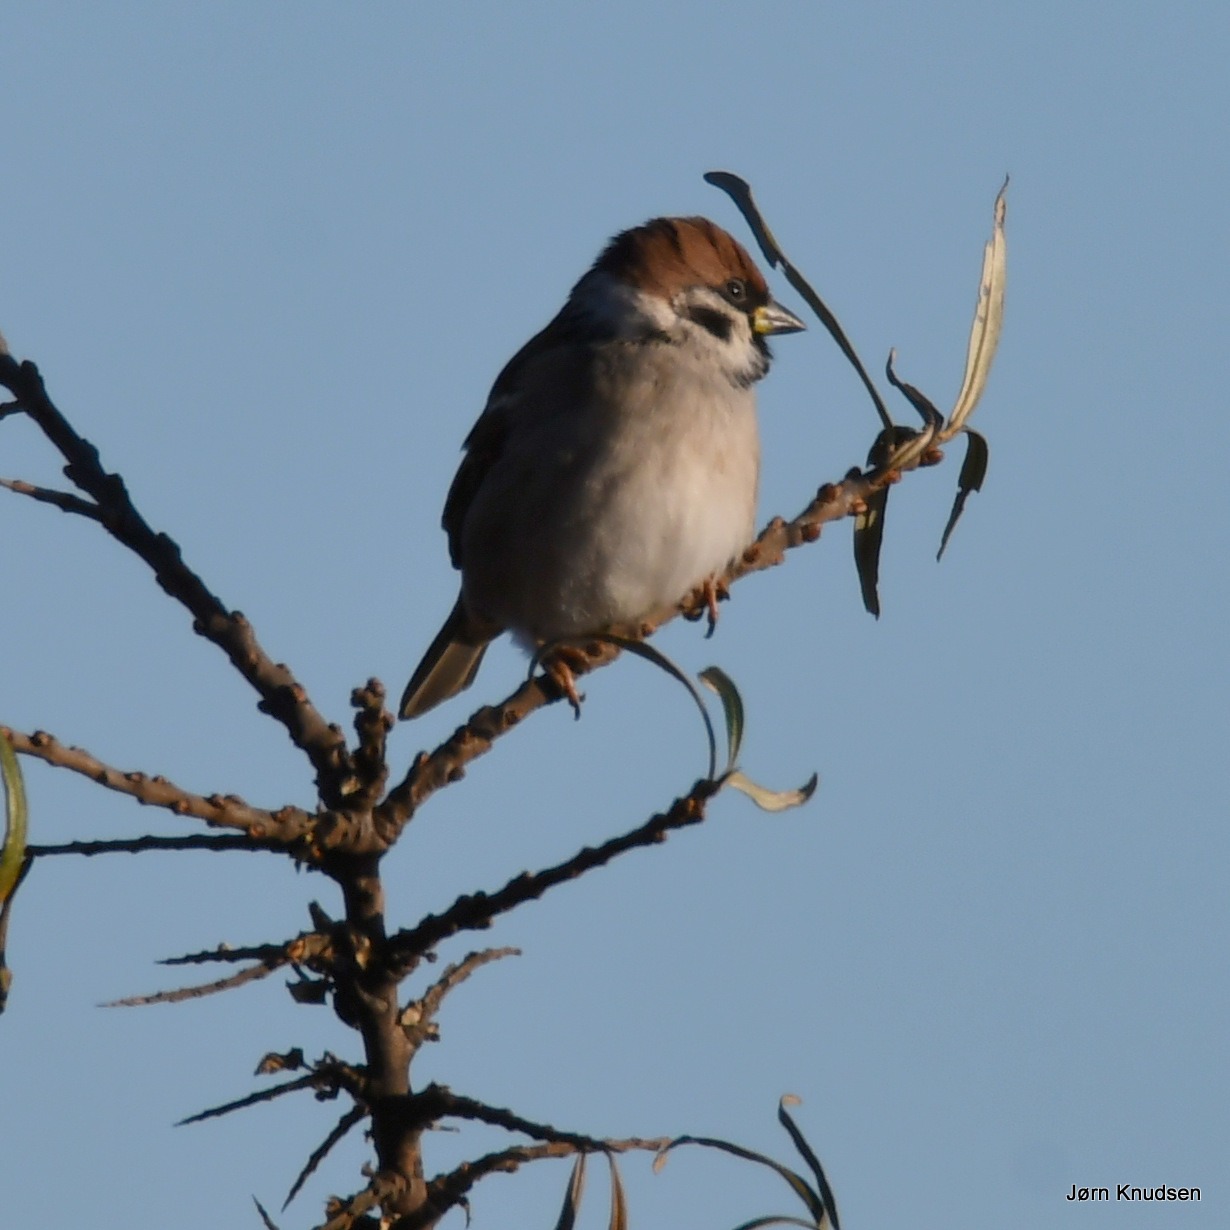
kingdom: Animalia
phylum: Chordata
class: Aves
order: Passeriformes
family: Passeridae
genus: Passer
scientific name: Passer montanus
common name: Skovspurv
